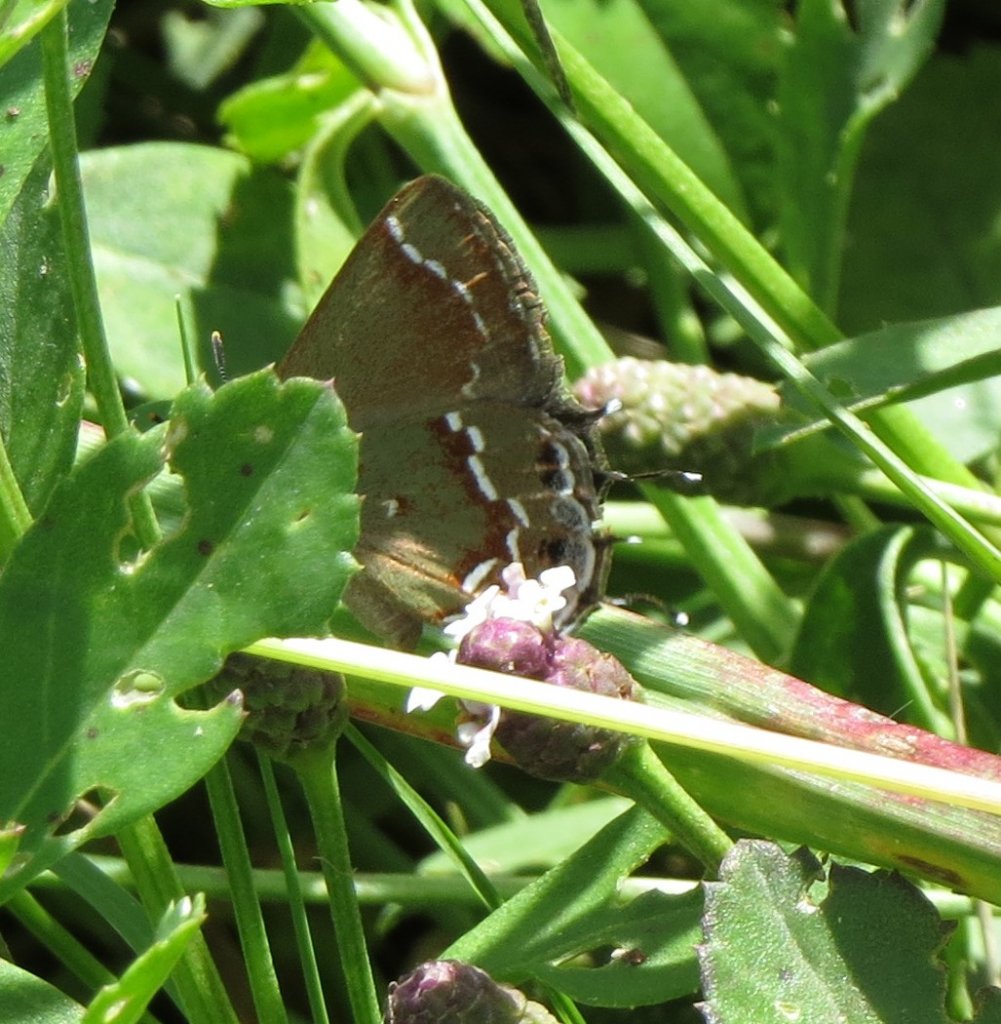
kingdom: Animalia
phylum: Arthropoda
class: Insecta
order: Lepidoptera
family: Lycaenidae
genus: Mitoura
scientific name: Mitoura gryneus
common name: Juniper Hairstreak
